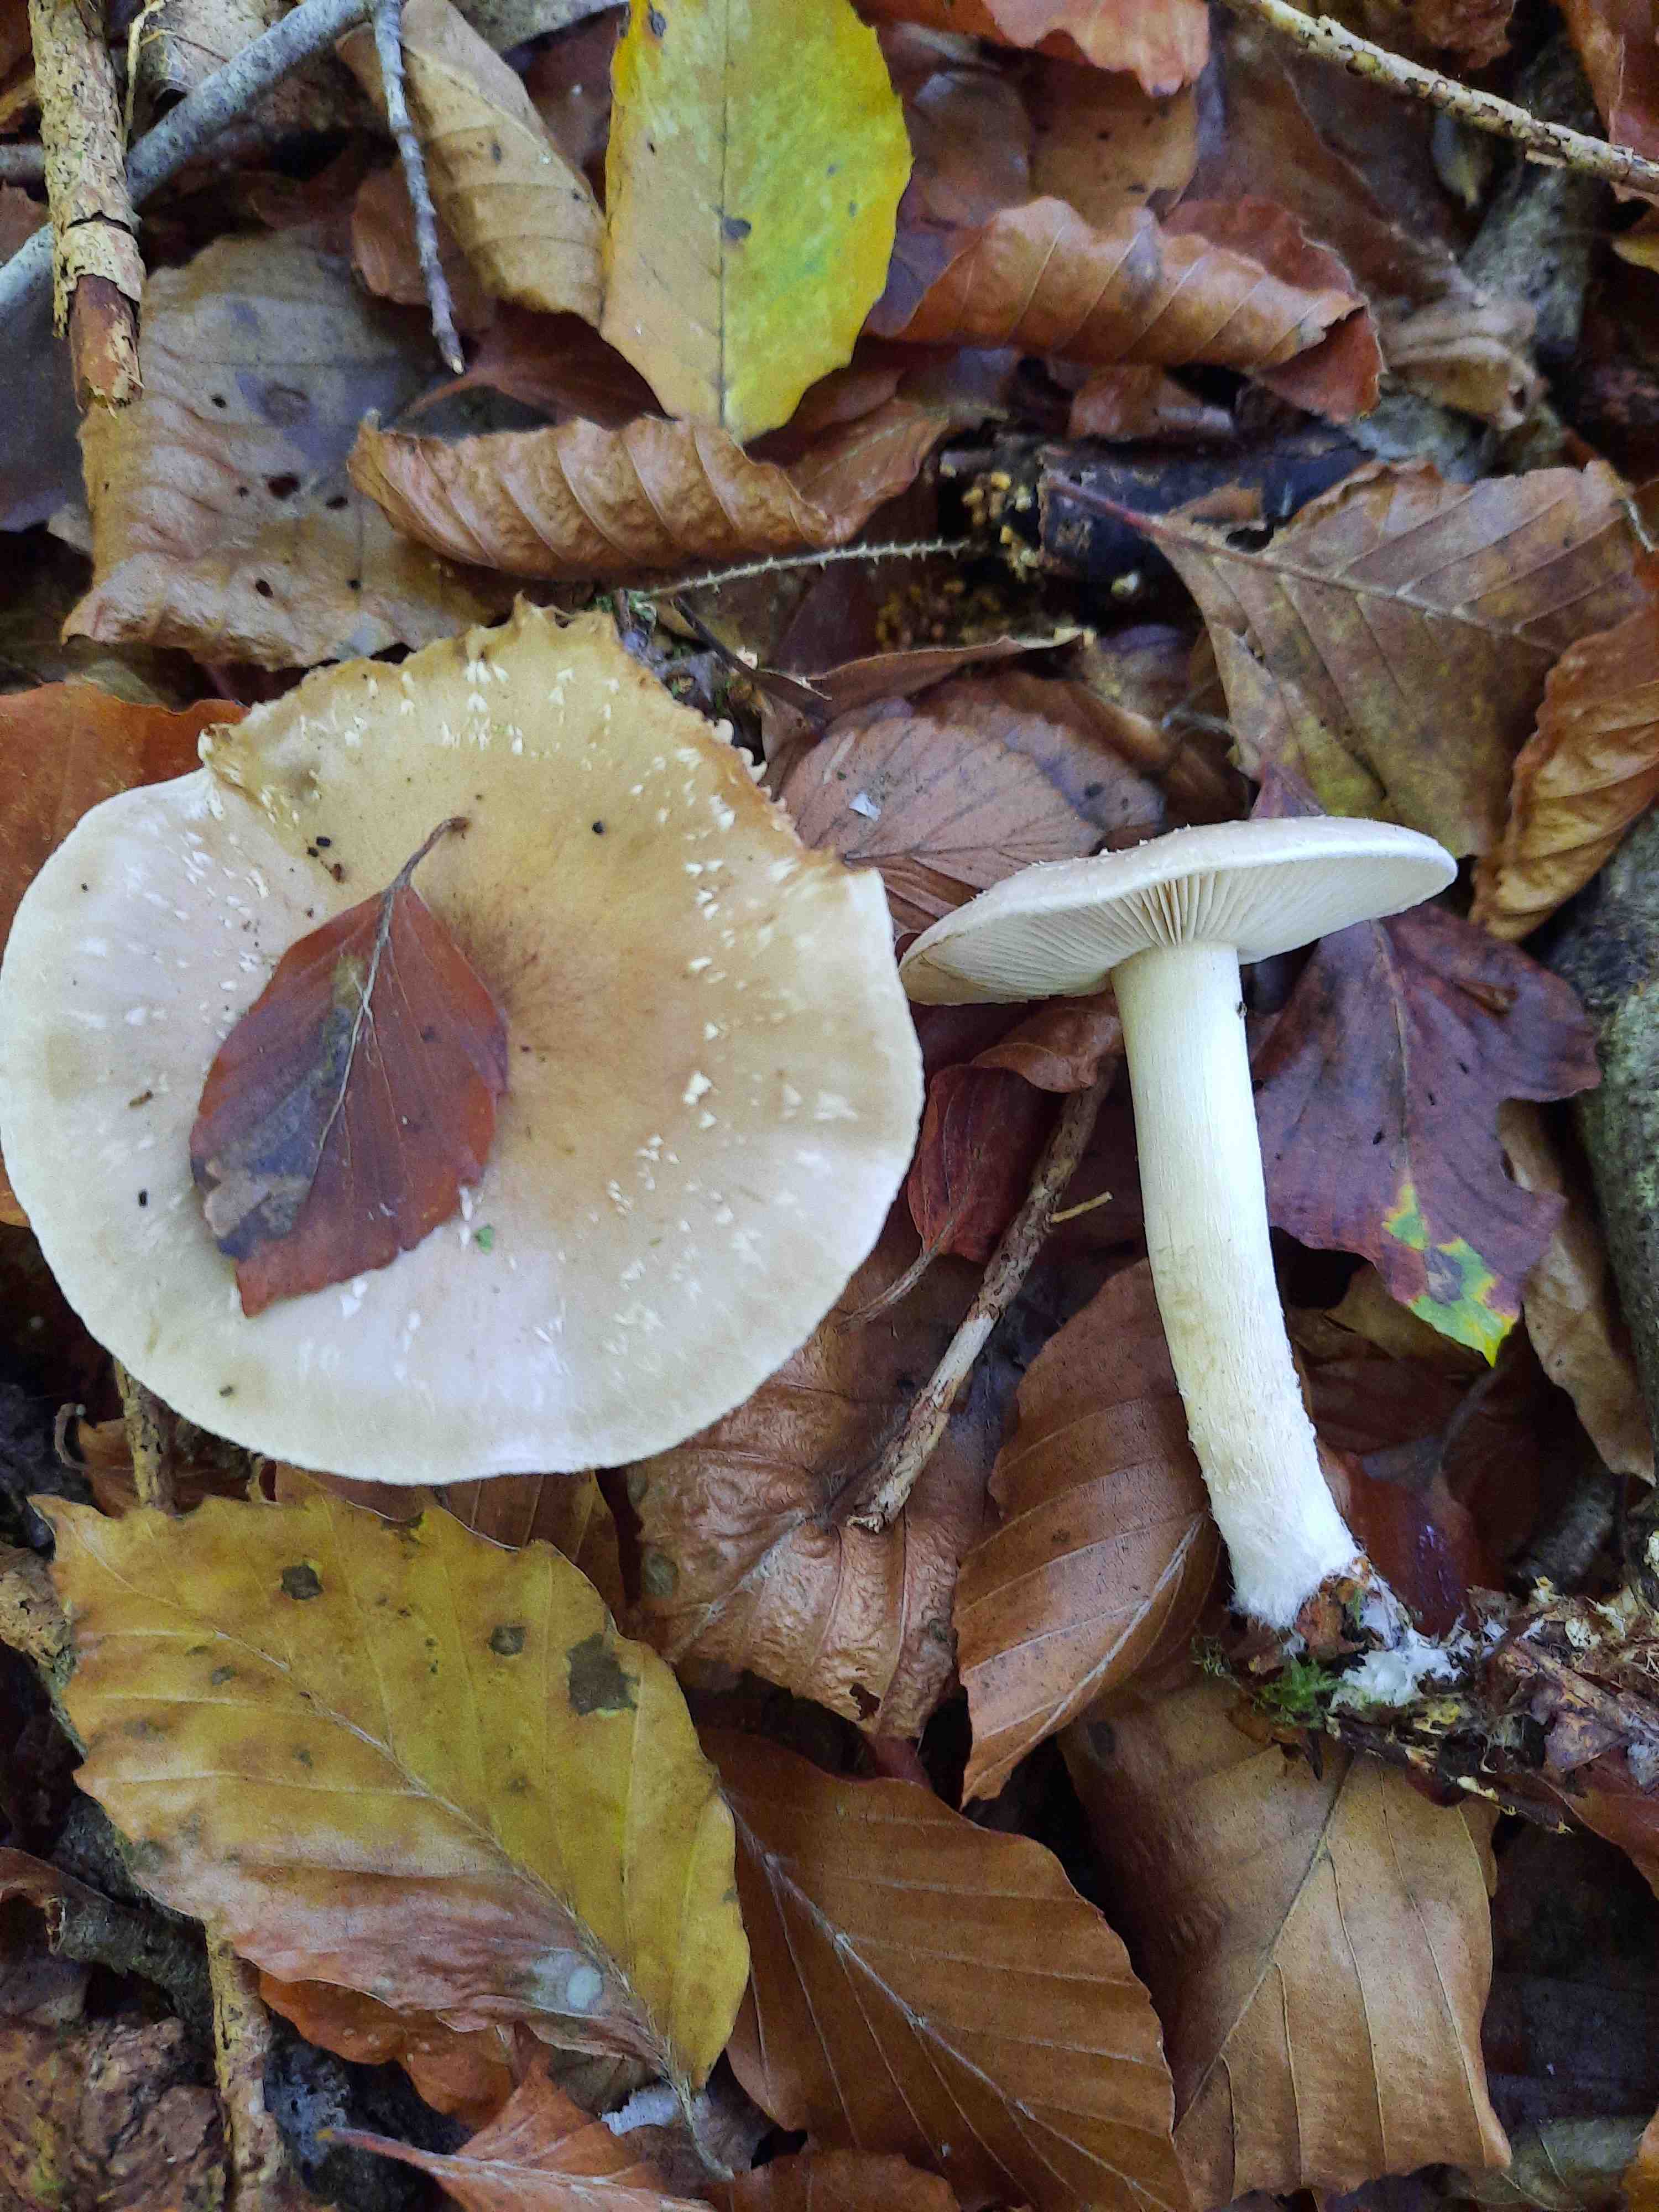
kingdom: Fungi
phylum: Basidiomycota
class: Agaricomycetes
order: Agaricales
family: Strophariaceae
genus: Pholiota
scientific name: Pholiota lenta
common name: løv-skælhat
